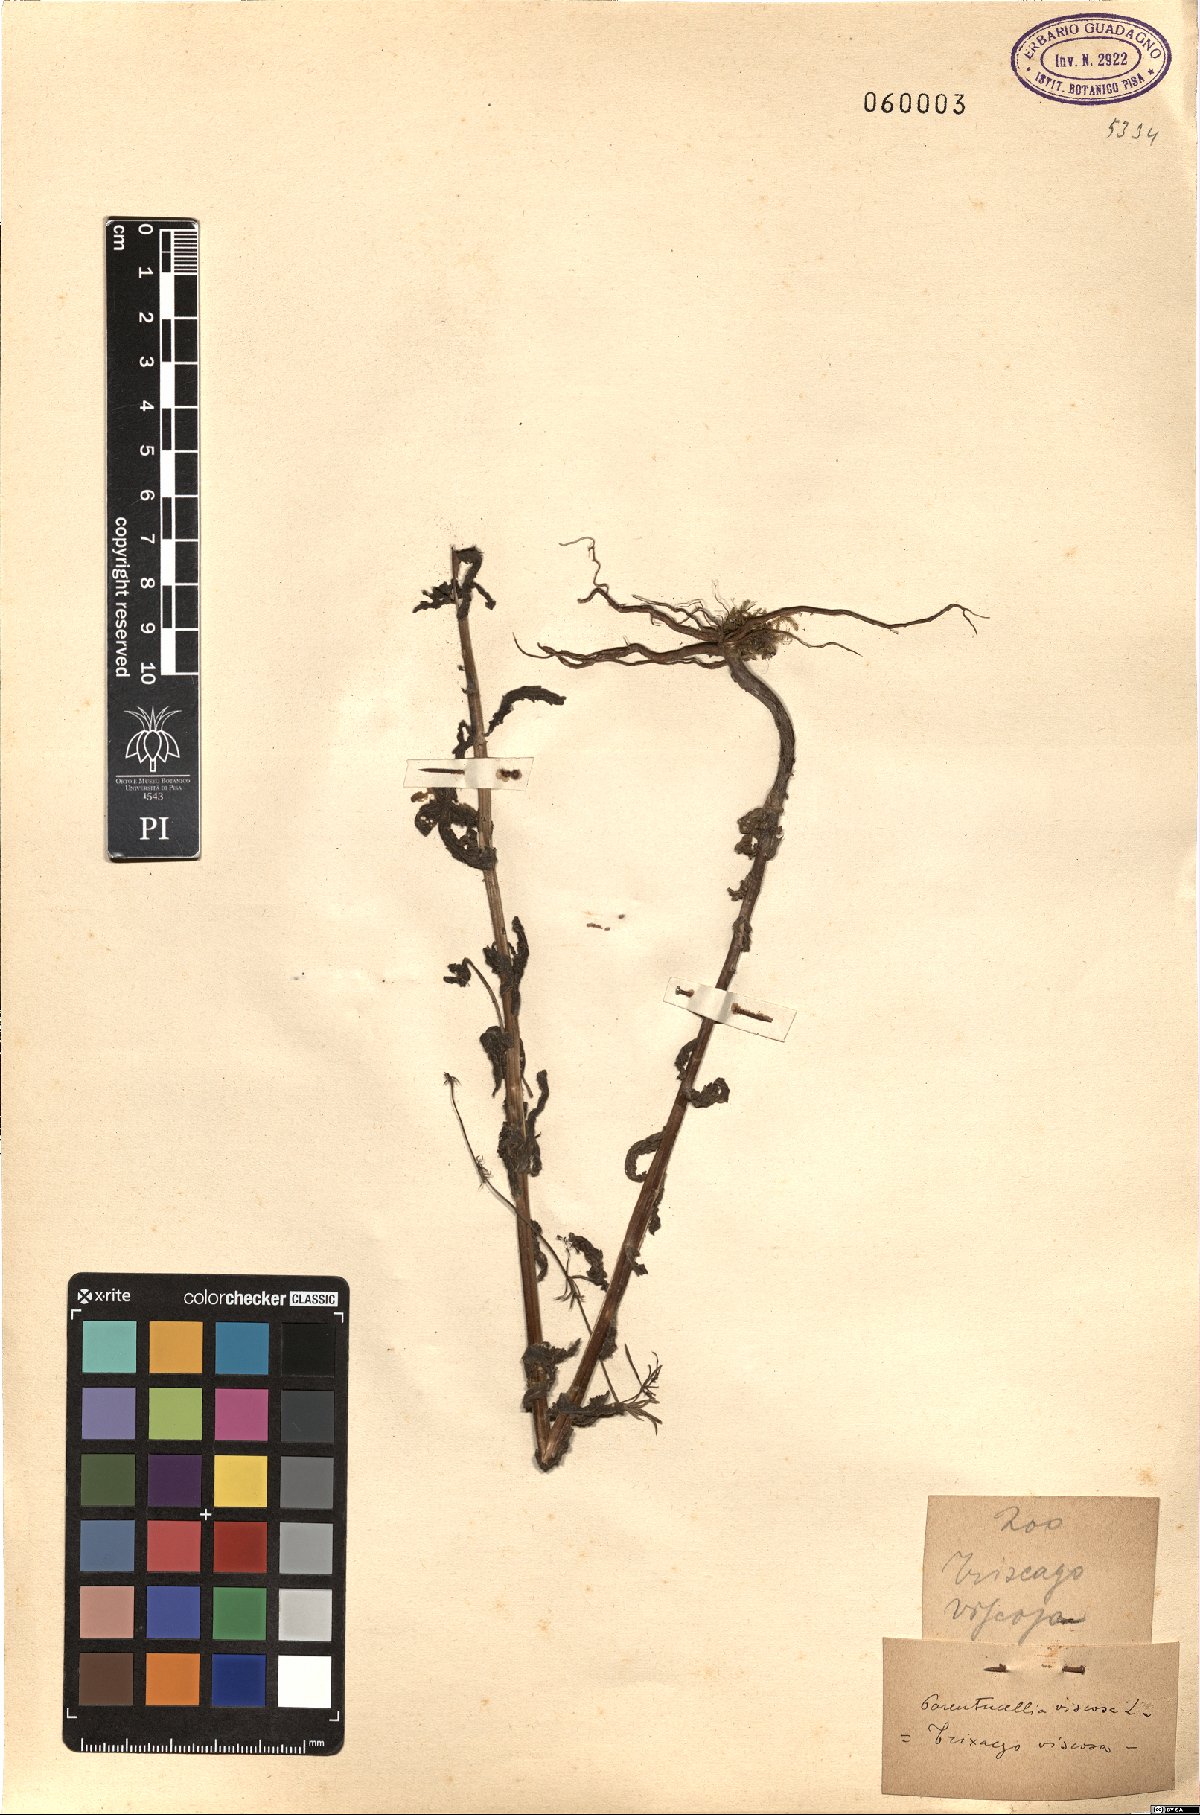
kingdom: Plantae
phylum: Tracheophyta
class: Magnoliopsida
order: Lamiales
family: Orobanchaceae
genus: Bellardia
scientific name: Bellardia viscosa
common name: Sticky parentucellia
